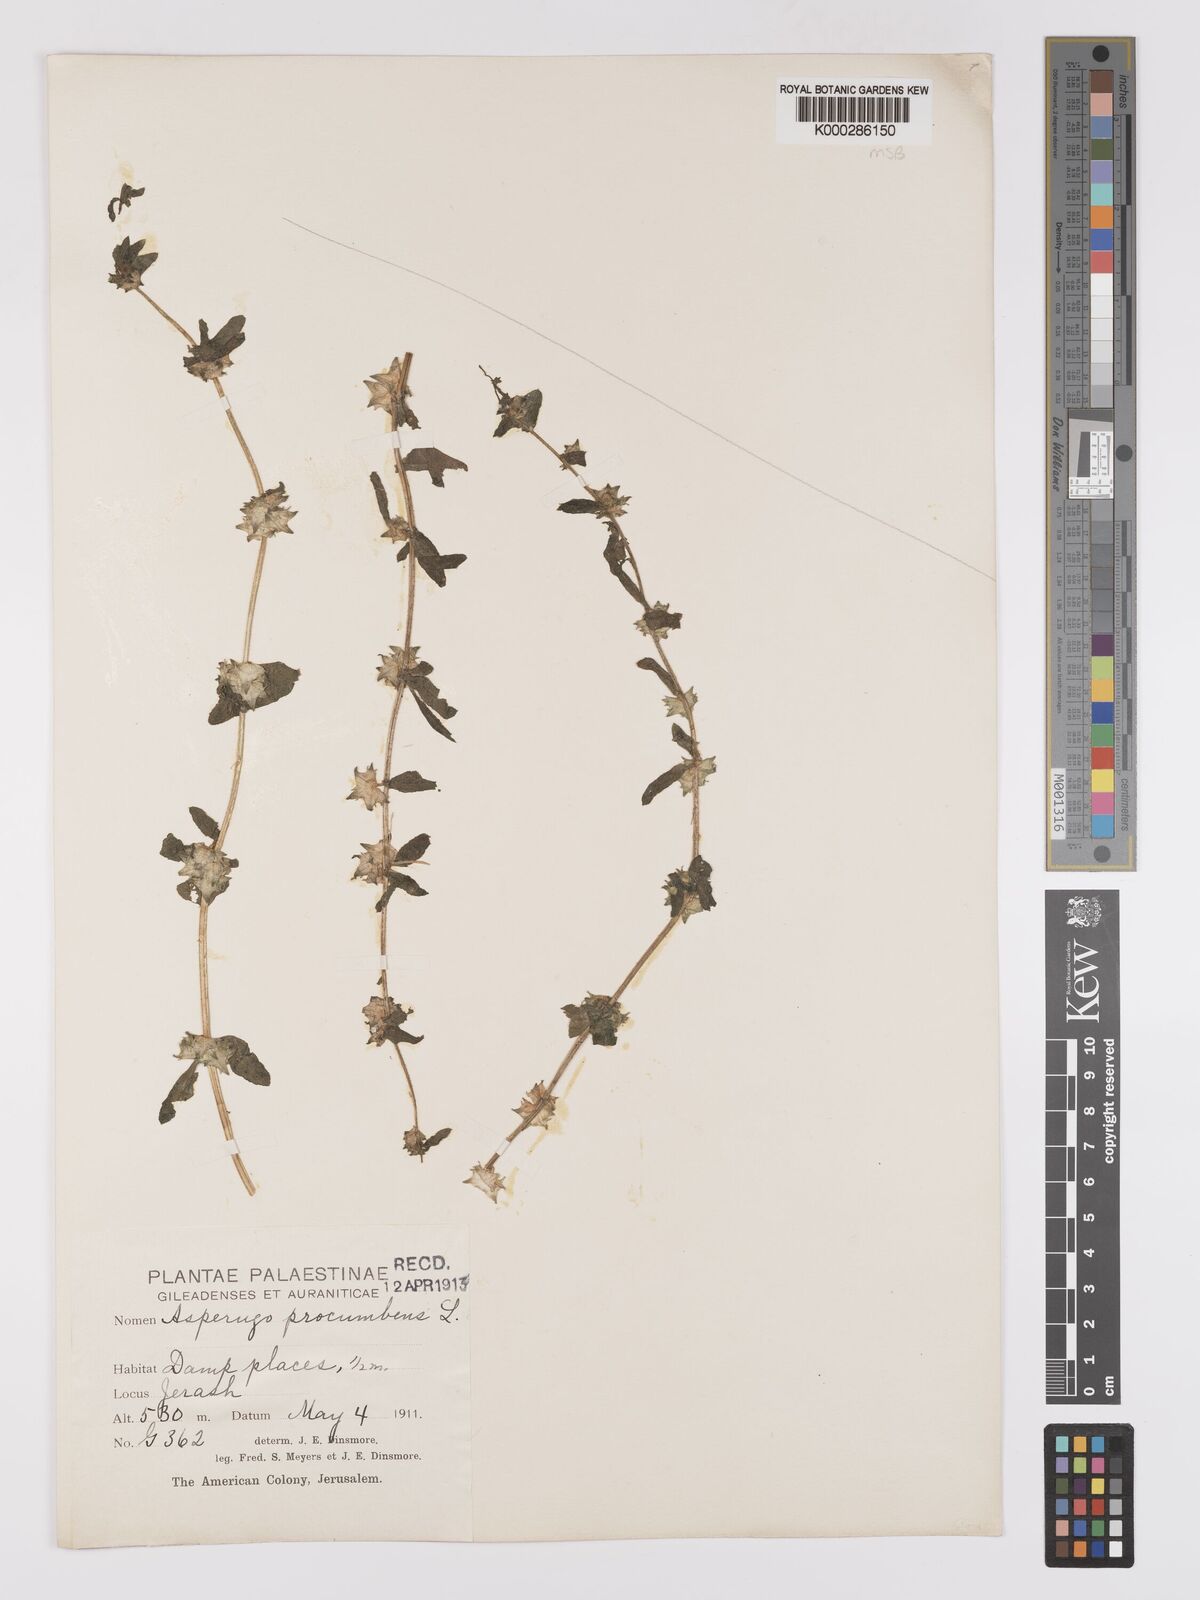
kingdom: Plantae
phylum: Tracheophyta
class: Magnoliopsida
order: Boraginales
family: Boraginaceae
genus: Asperugo
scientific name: Asperugo procumbens
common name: Madwort
